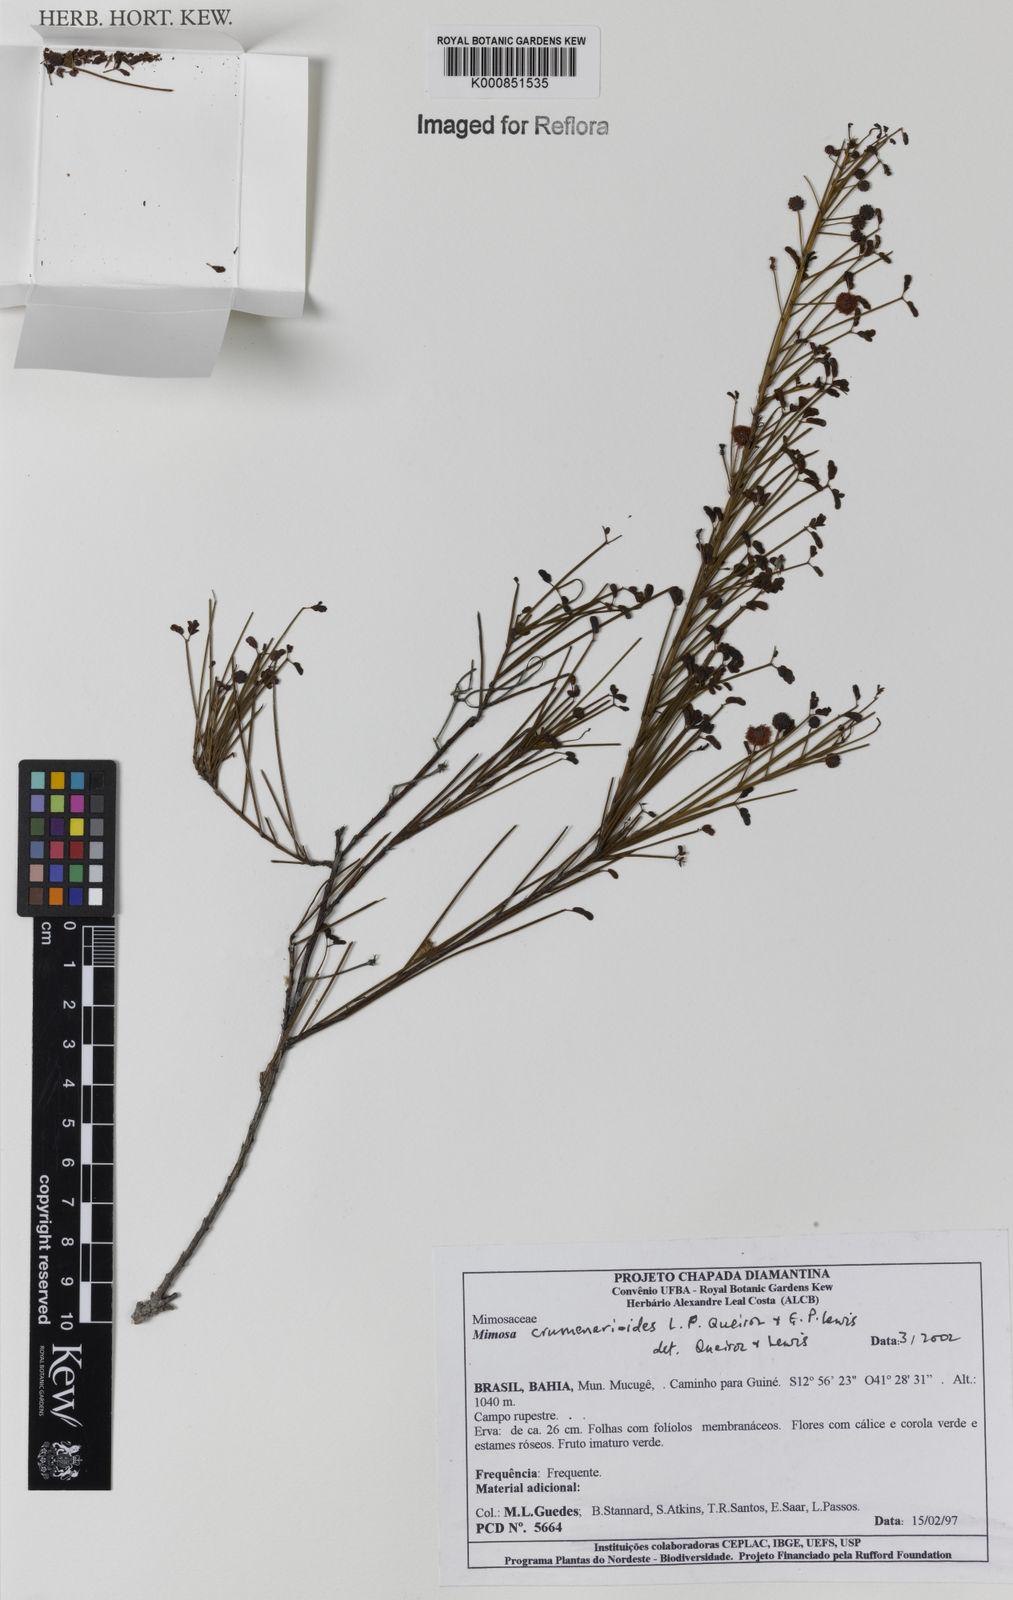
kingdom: Plantae
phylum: Tracheophyta
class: Magnoliopsida
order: Fabales
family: Fabaceae
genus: Mimosa
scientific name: Mimosa crumenarioides
